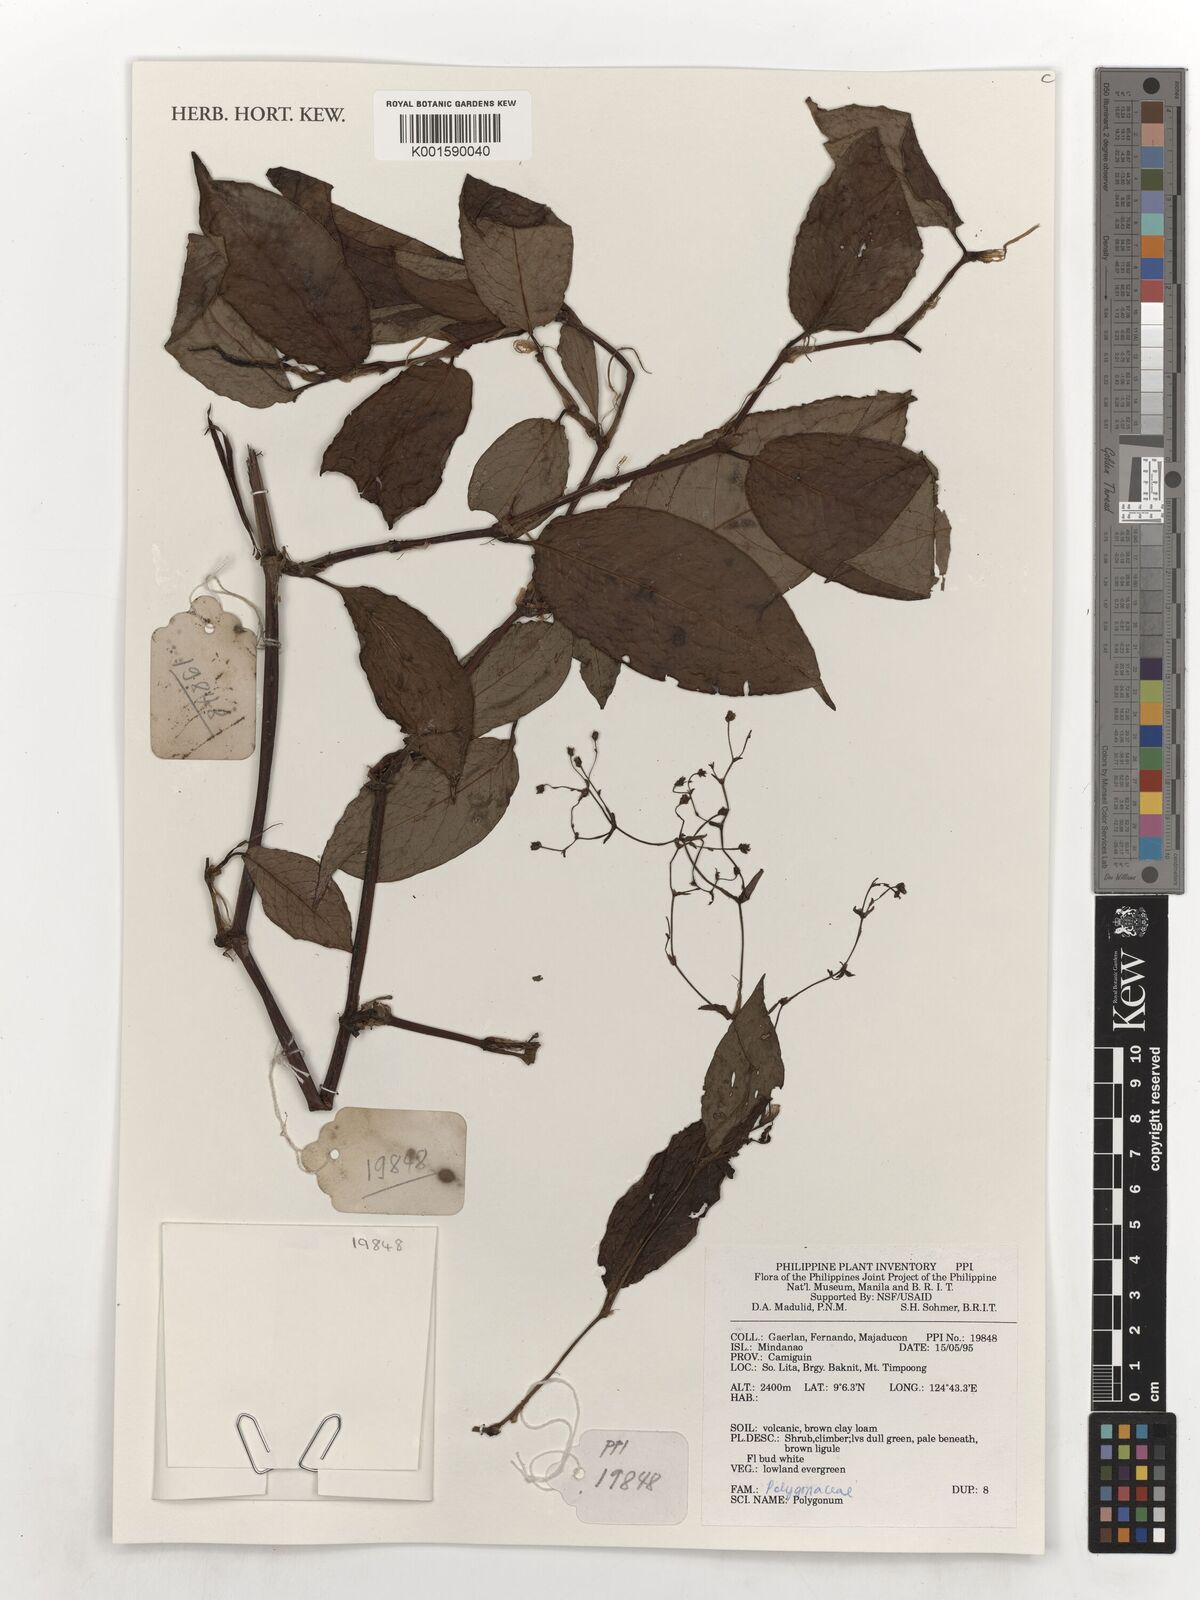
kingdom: Plantae
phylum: Tracheophyta
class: Magnoliopsida
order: Caryophyllales
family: Polygonaceae
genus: Polygonum
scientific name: Polygonum
